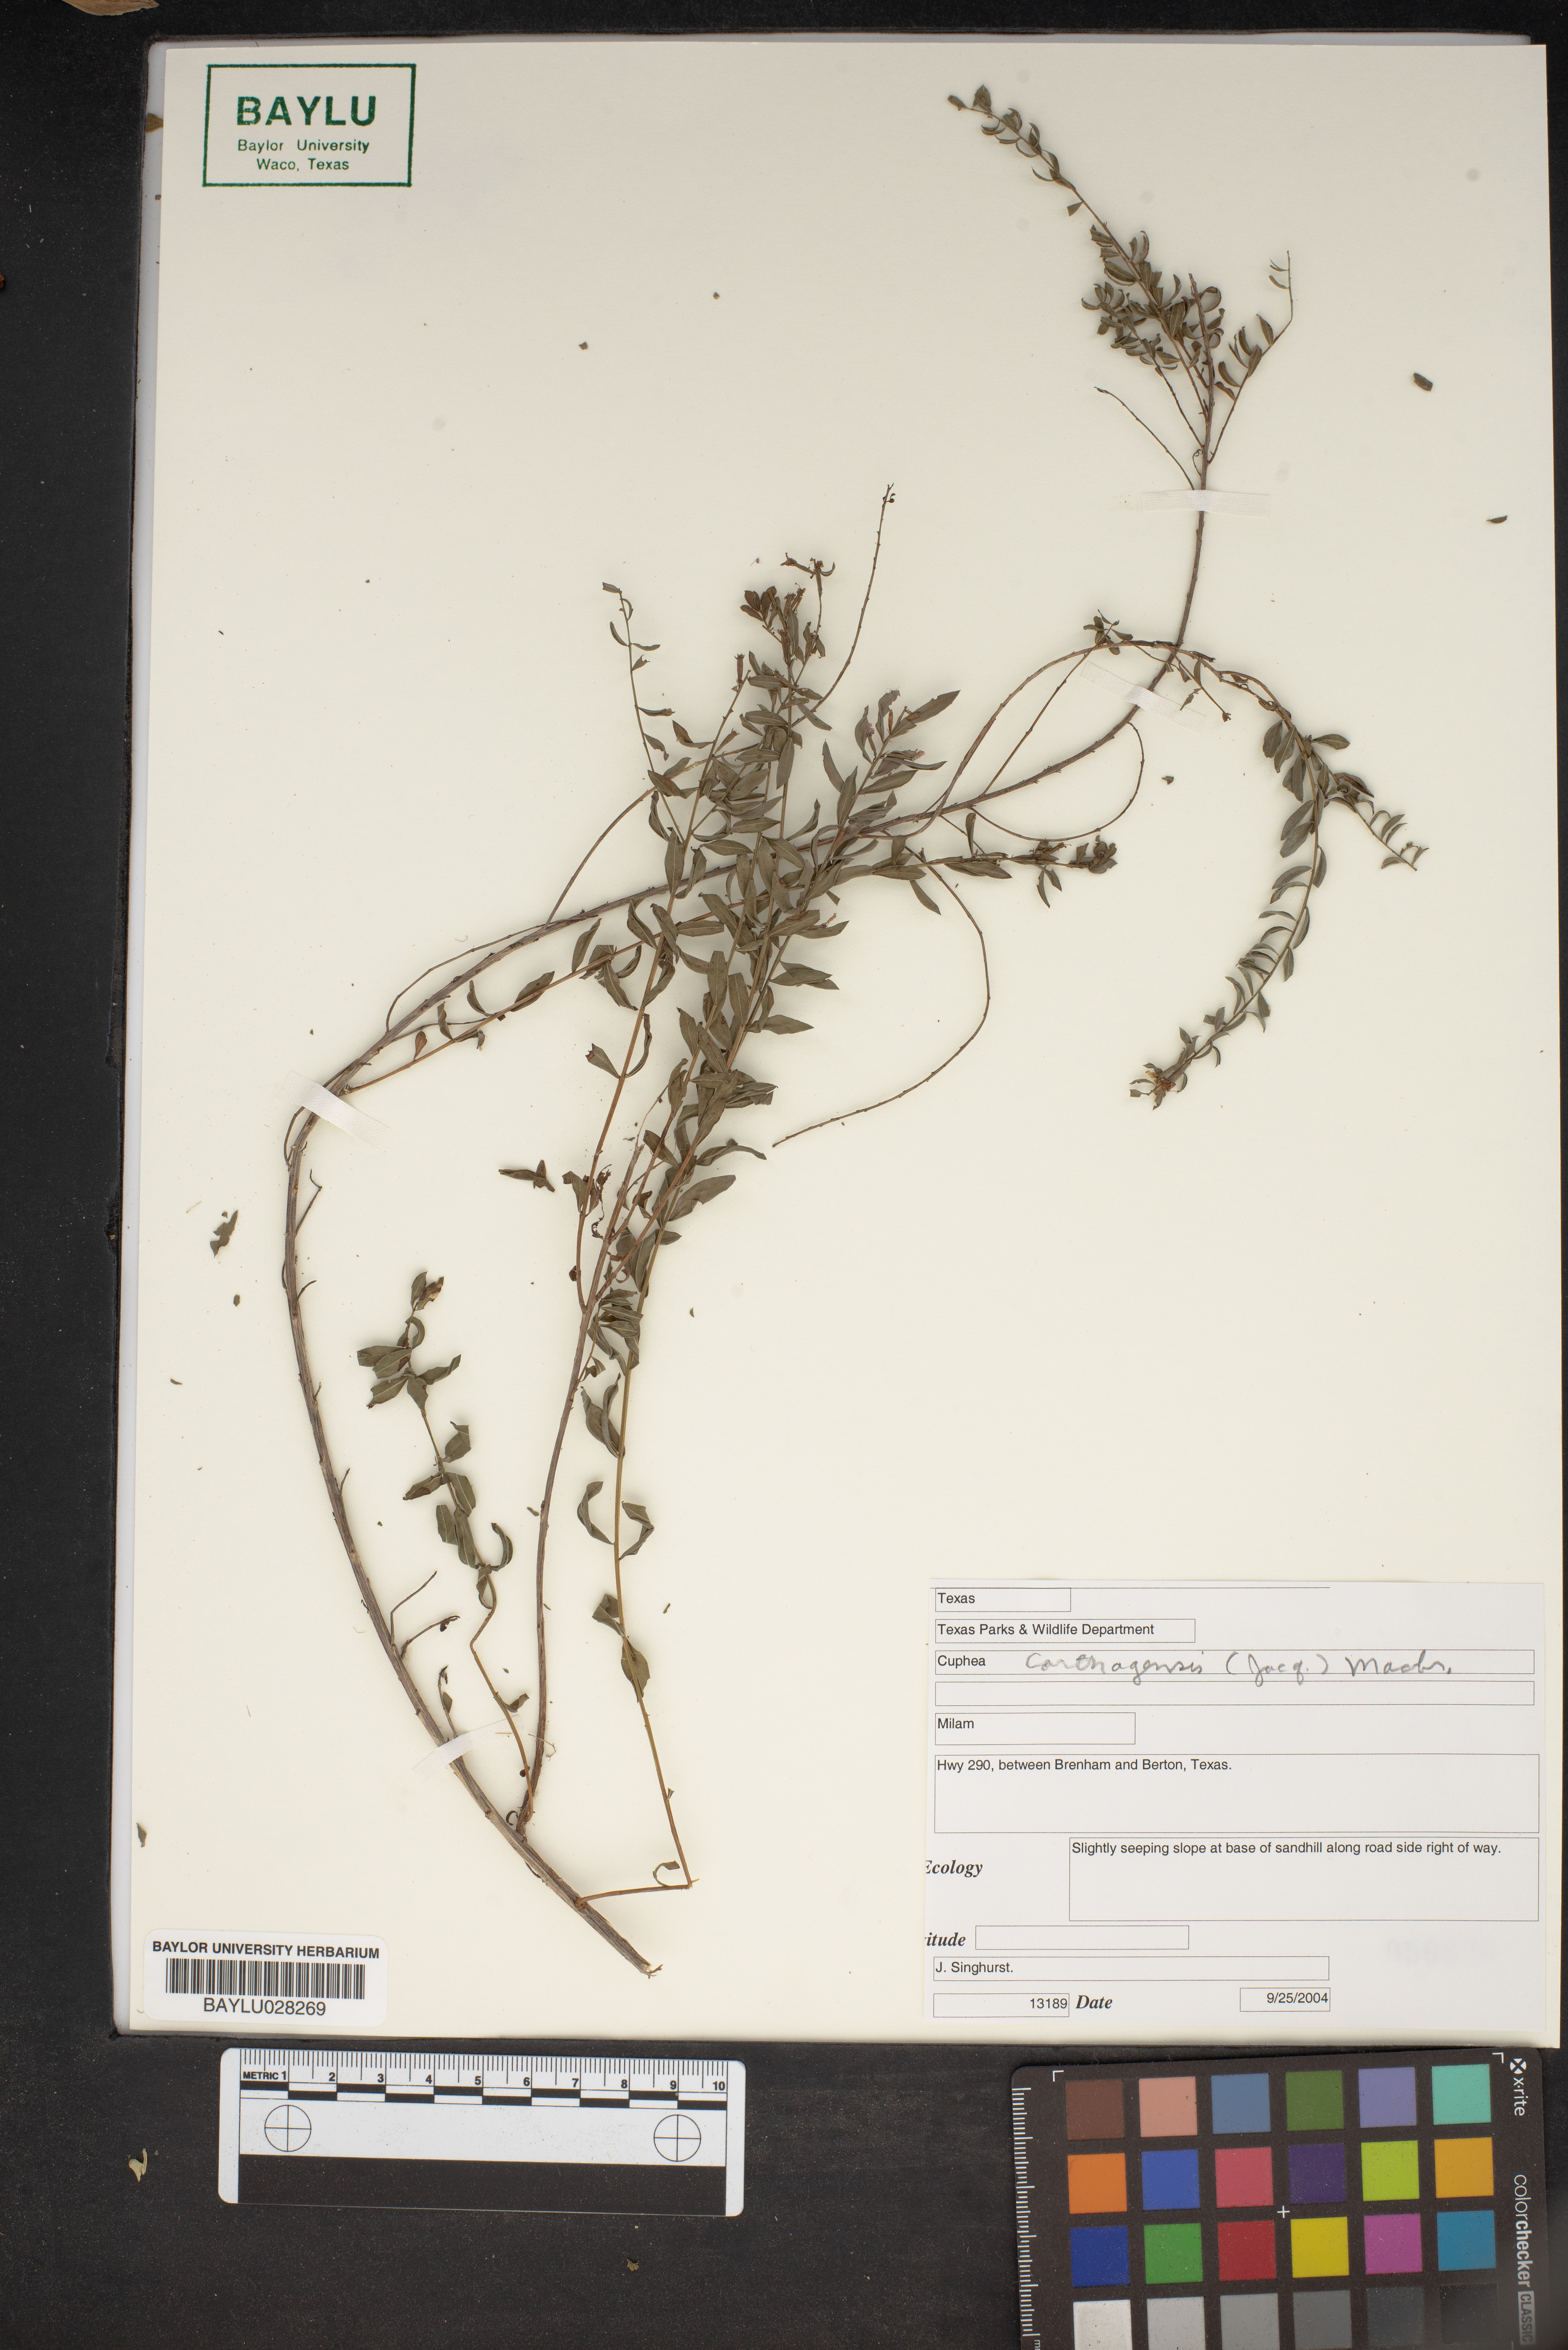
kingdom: Plantae
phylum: Tracheophyta
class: Magnoliopsida
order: Myrtales
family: Lythraceae
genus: Cuphea
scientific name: Cuphea carthagenensis
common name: Colombian waxweed
